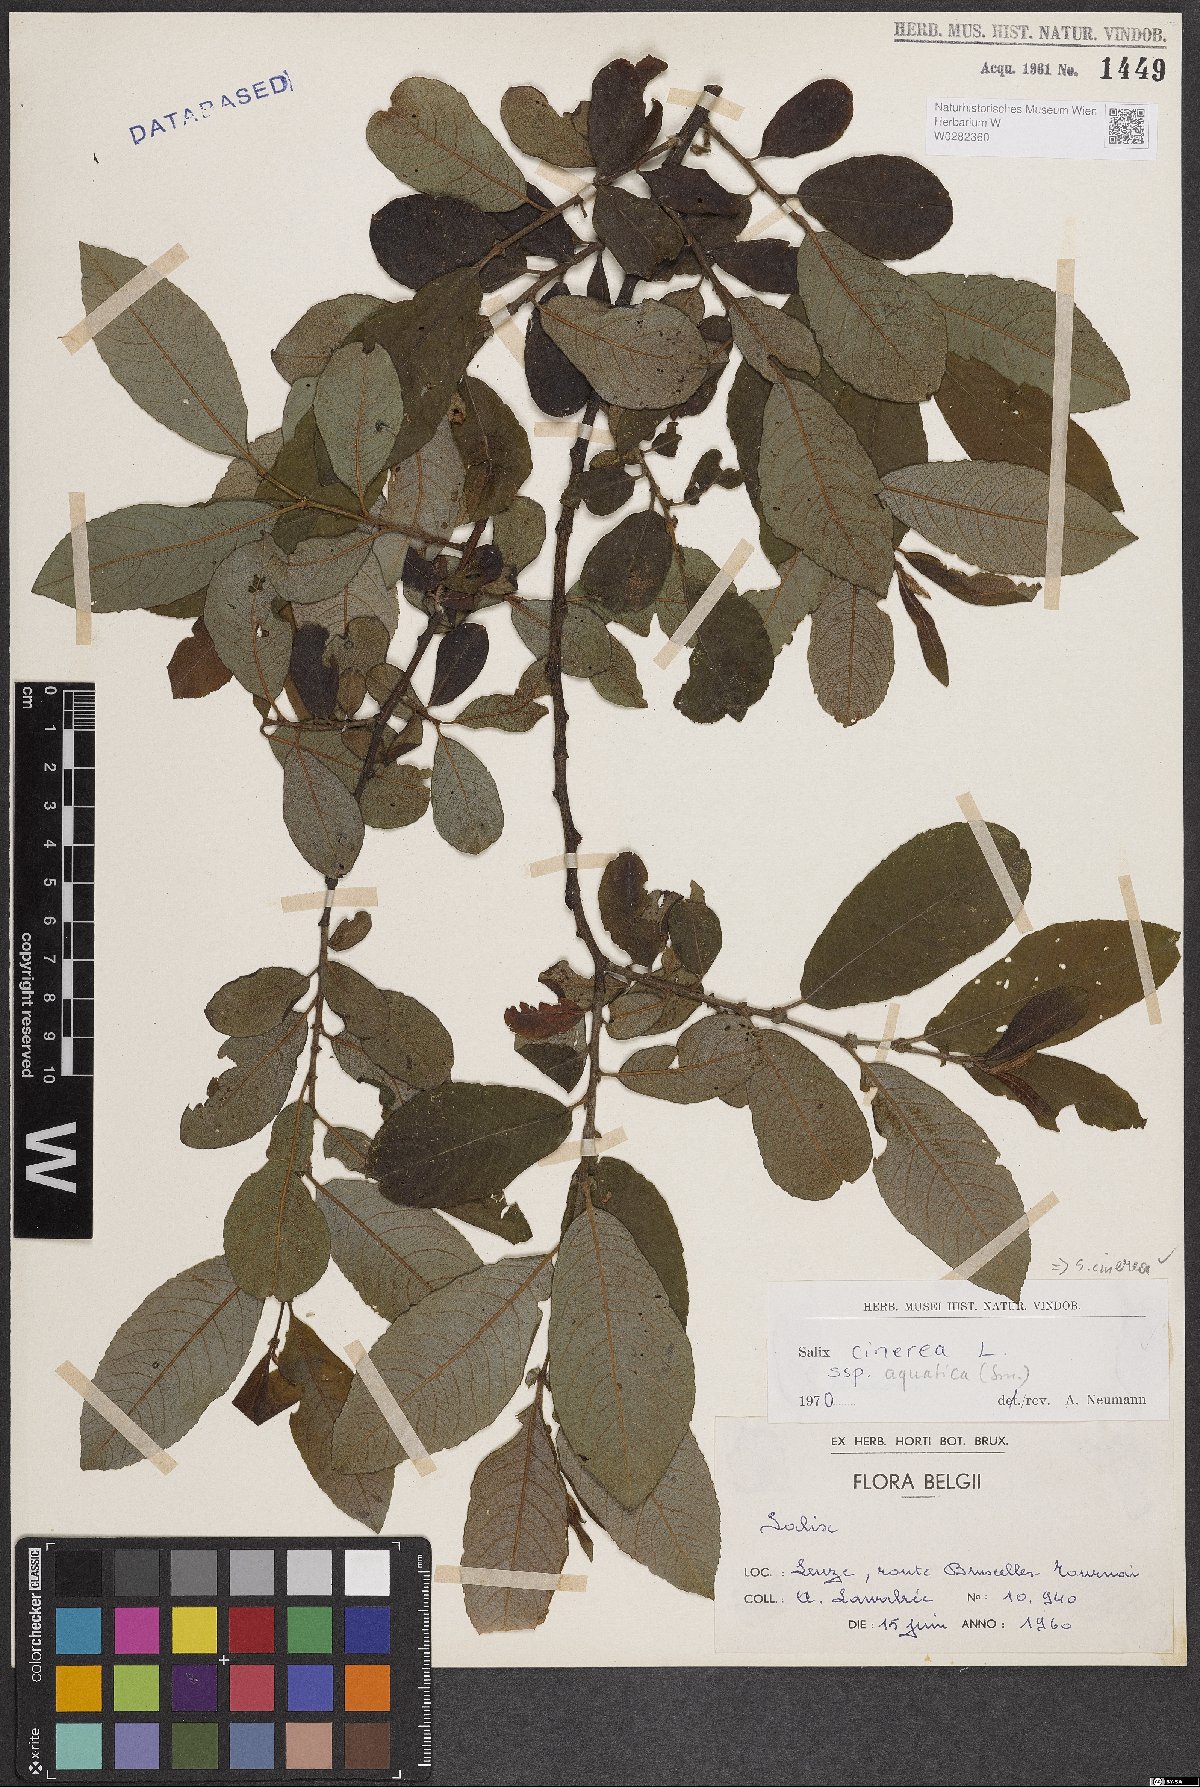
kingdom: Plantae
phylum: Tracheophyta
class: Magnoliopsida
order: Malpighiales
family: Salicaceae
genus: Salix
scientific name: Salix cinerea
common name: Common sallow
